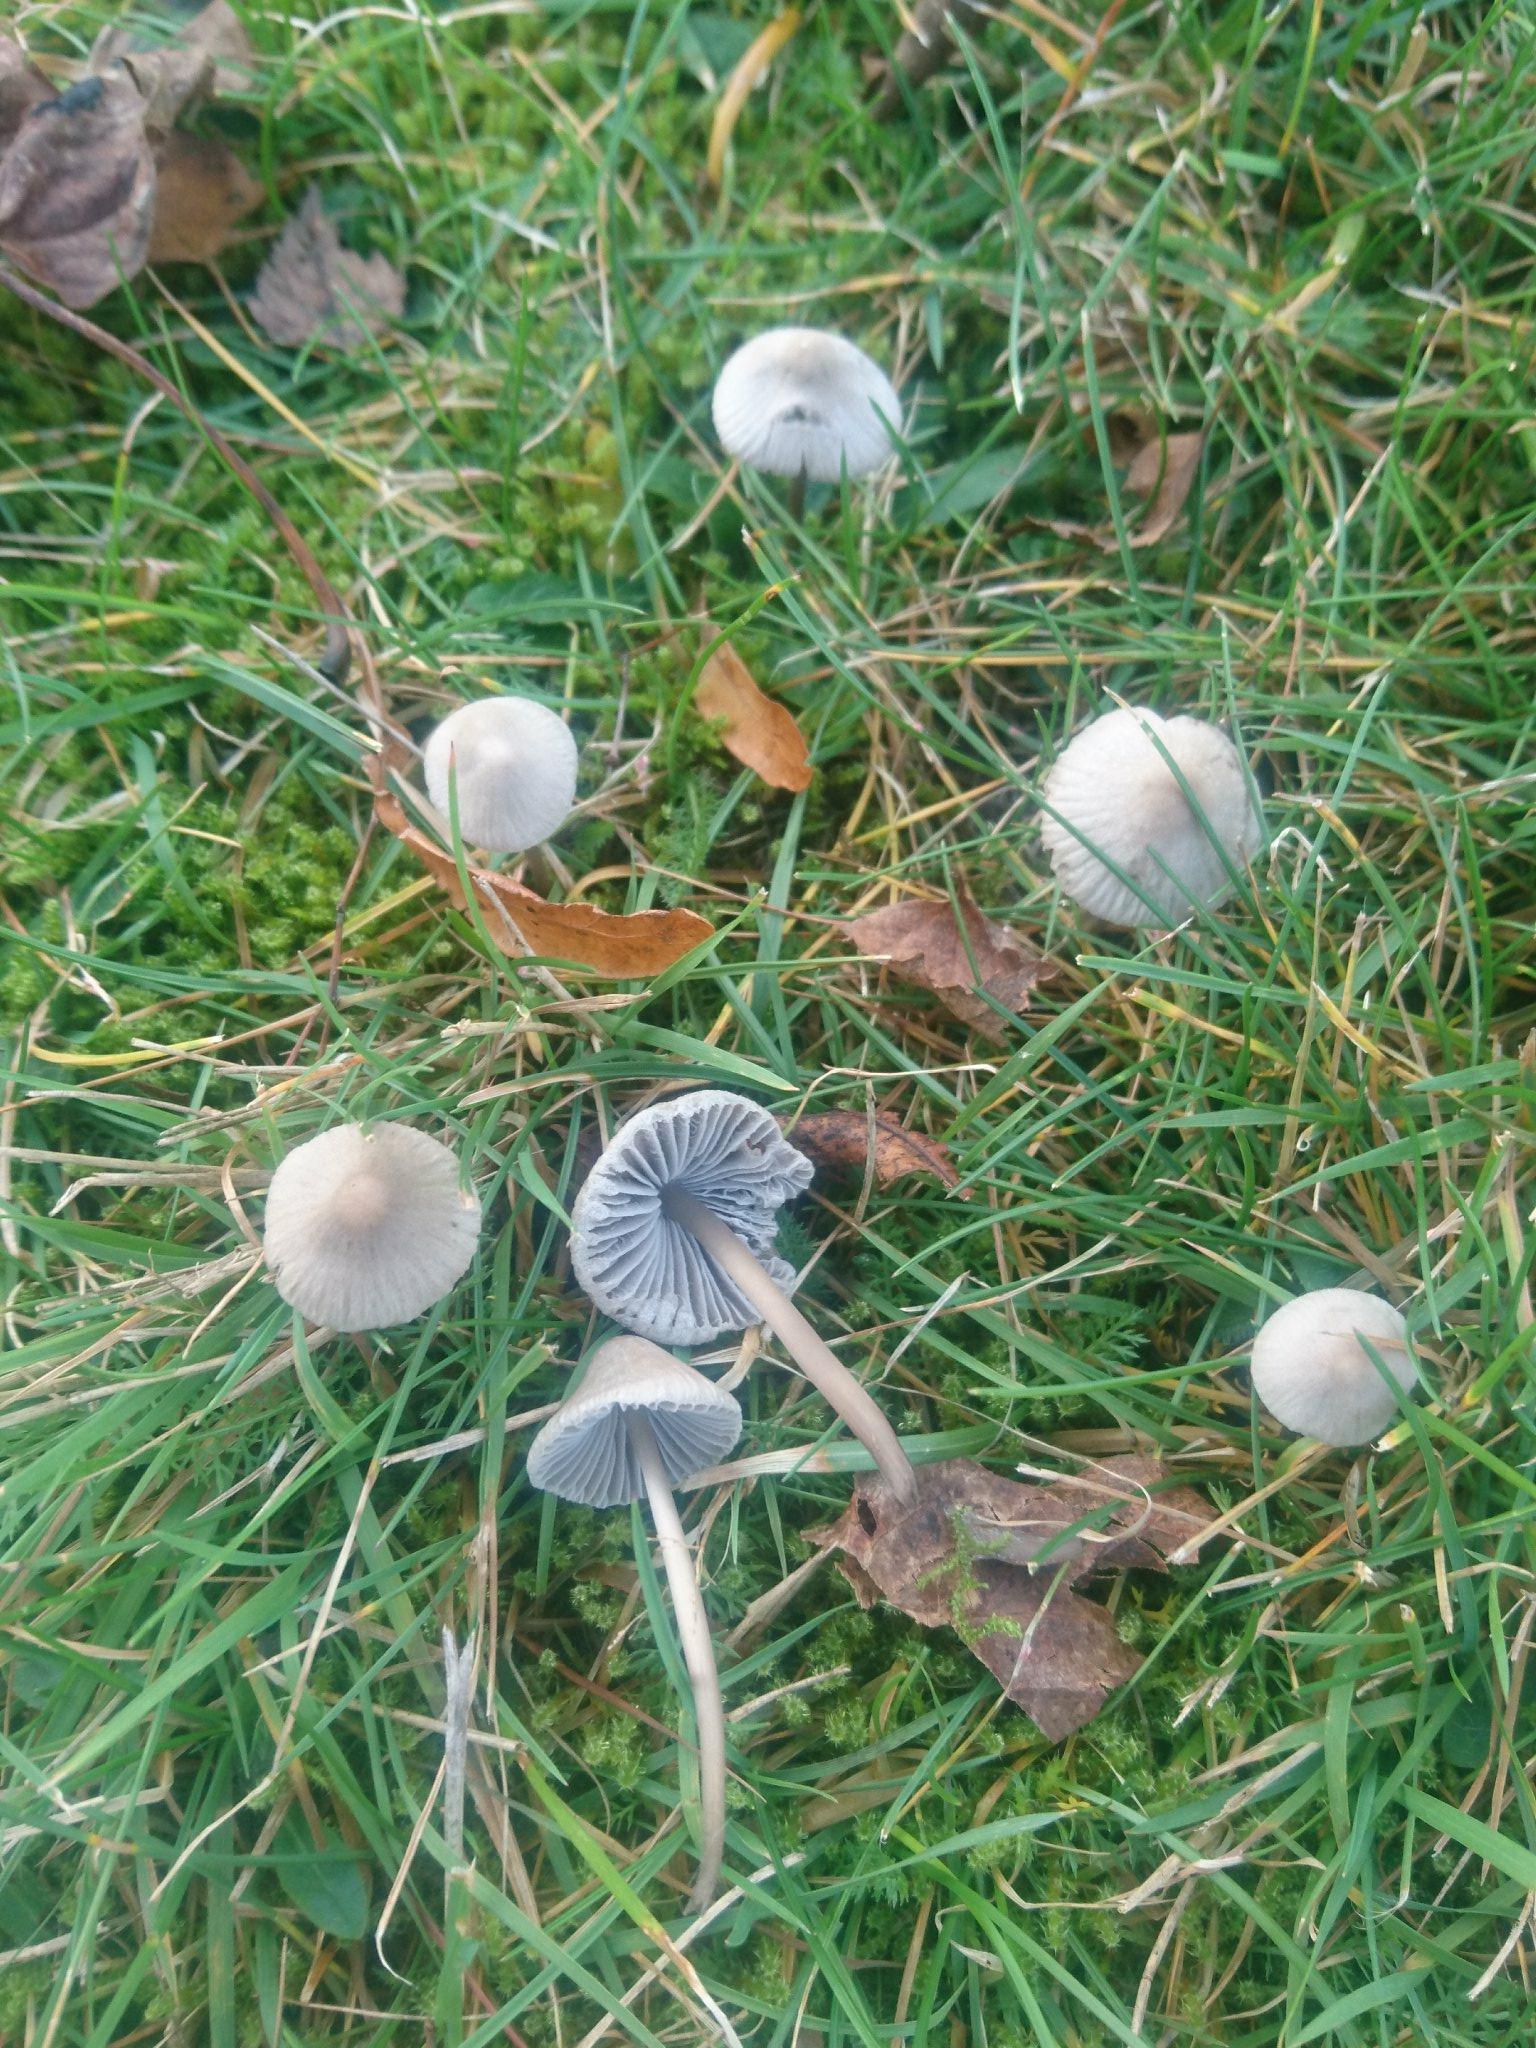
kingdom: Fungi
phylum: Basidiomycota
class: Agaricomycetes
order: Agaricales
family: Mycenaceae
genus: Mycena
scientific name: Mycena aetites
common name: plæne-huesvamp
